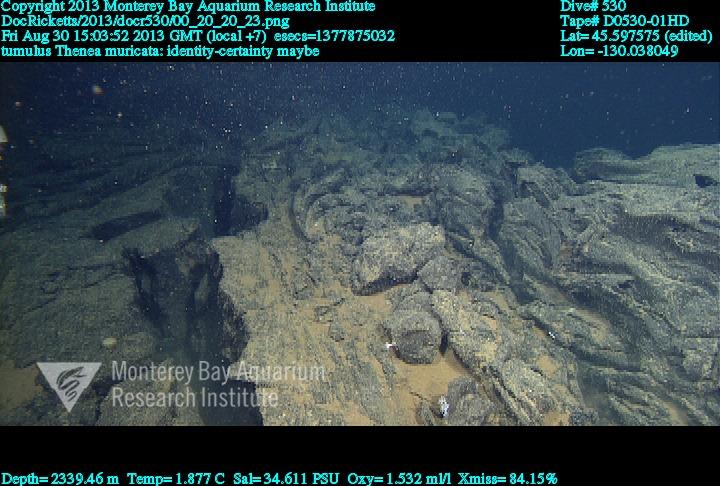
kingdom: Animalia
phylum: Porifera
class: Demospongiae
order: Tetractinellida
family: Theneidae
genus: Thenea
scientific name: Thenea muricata
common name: Mulberry horny sponge
